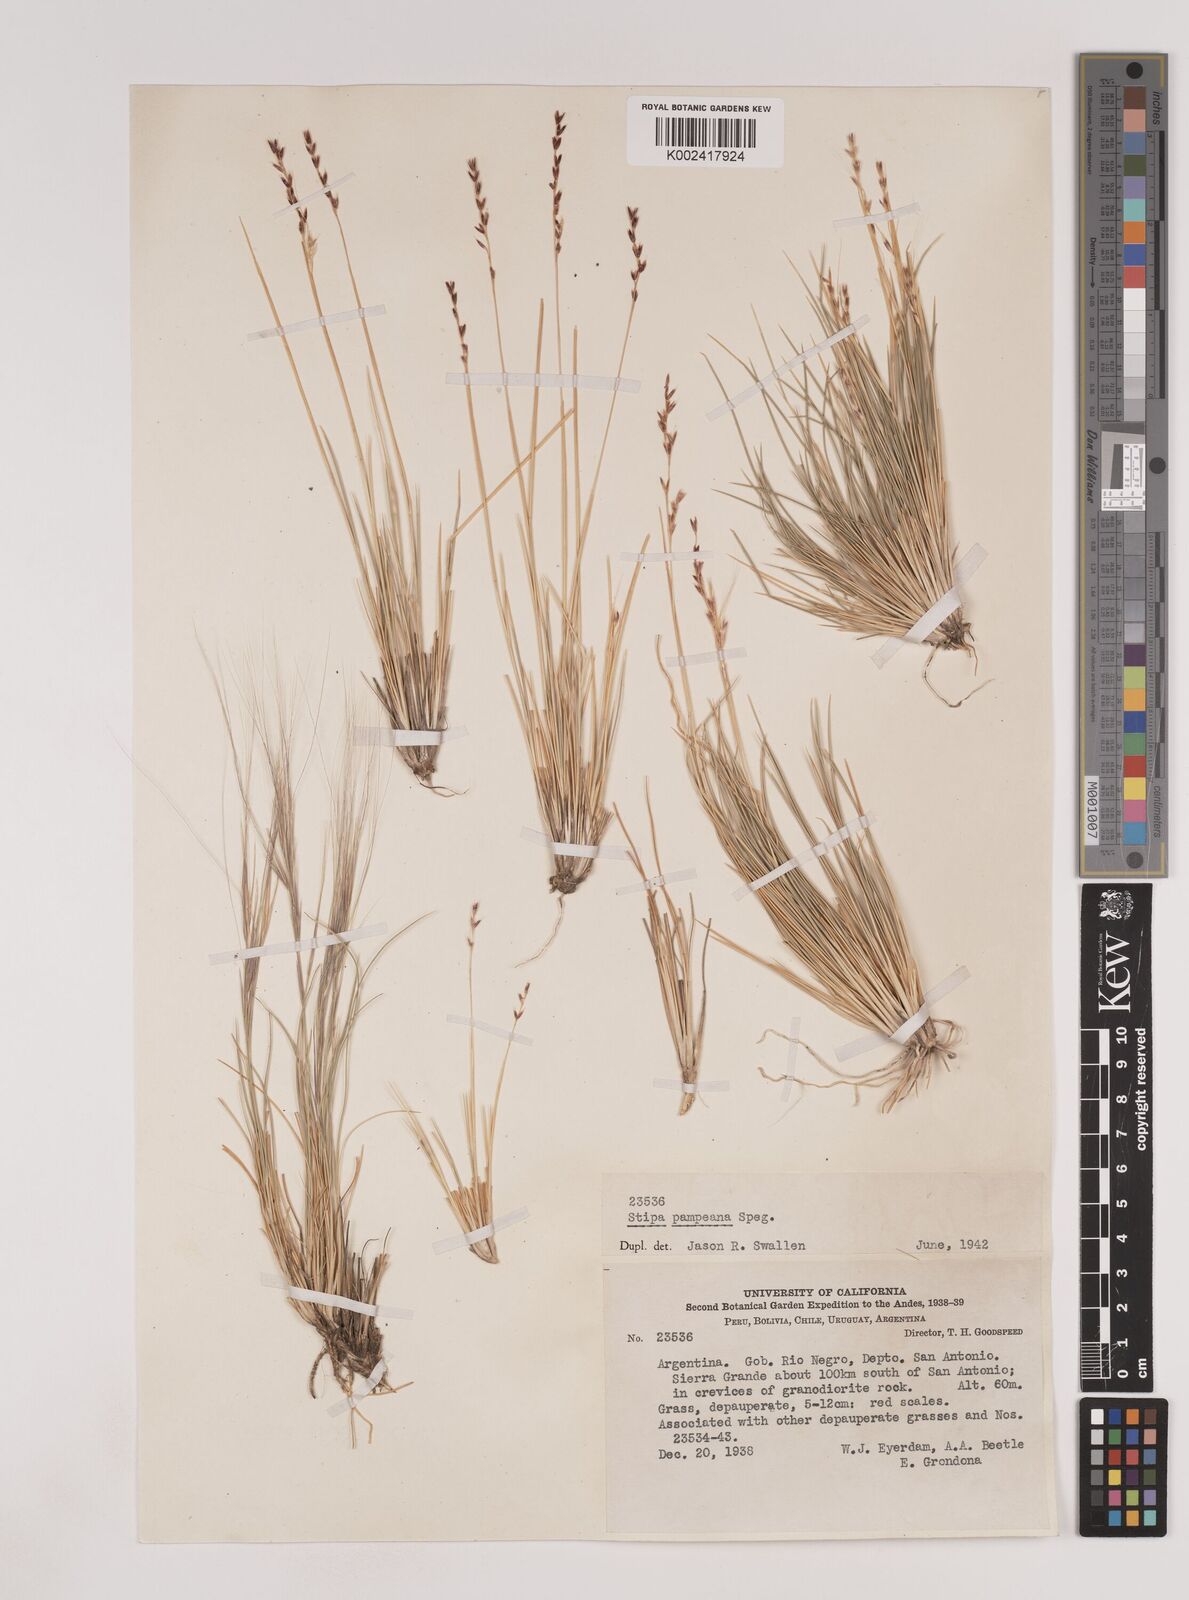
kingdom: Plantae
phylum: Tracheophyta
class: Liliopsida
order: Poales
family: Poaceae
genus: Nassella
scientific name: Nassella pampeana
